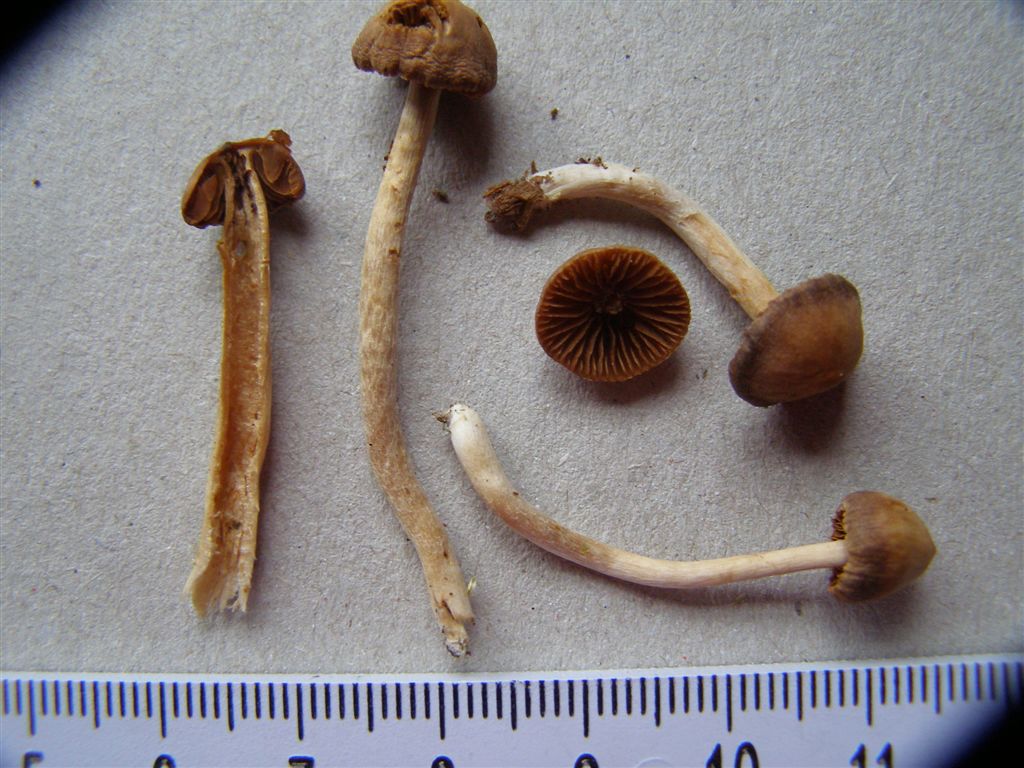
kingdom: Fungi
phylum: Basidiomycota
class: Agaricomycetes
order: Agaricales
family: Cortinariaceae
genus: Cortinarius
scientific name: Cortinarius
